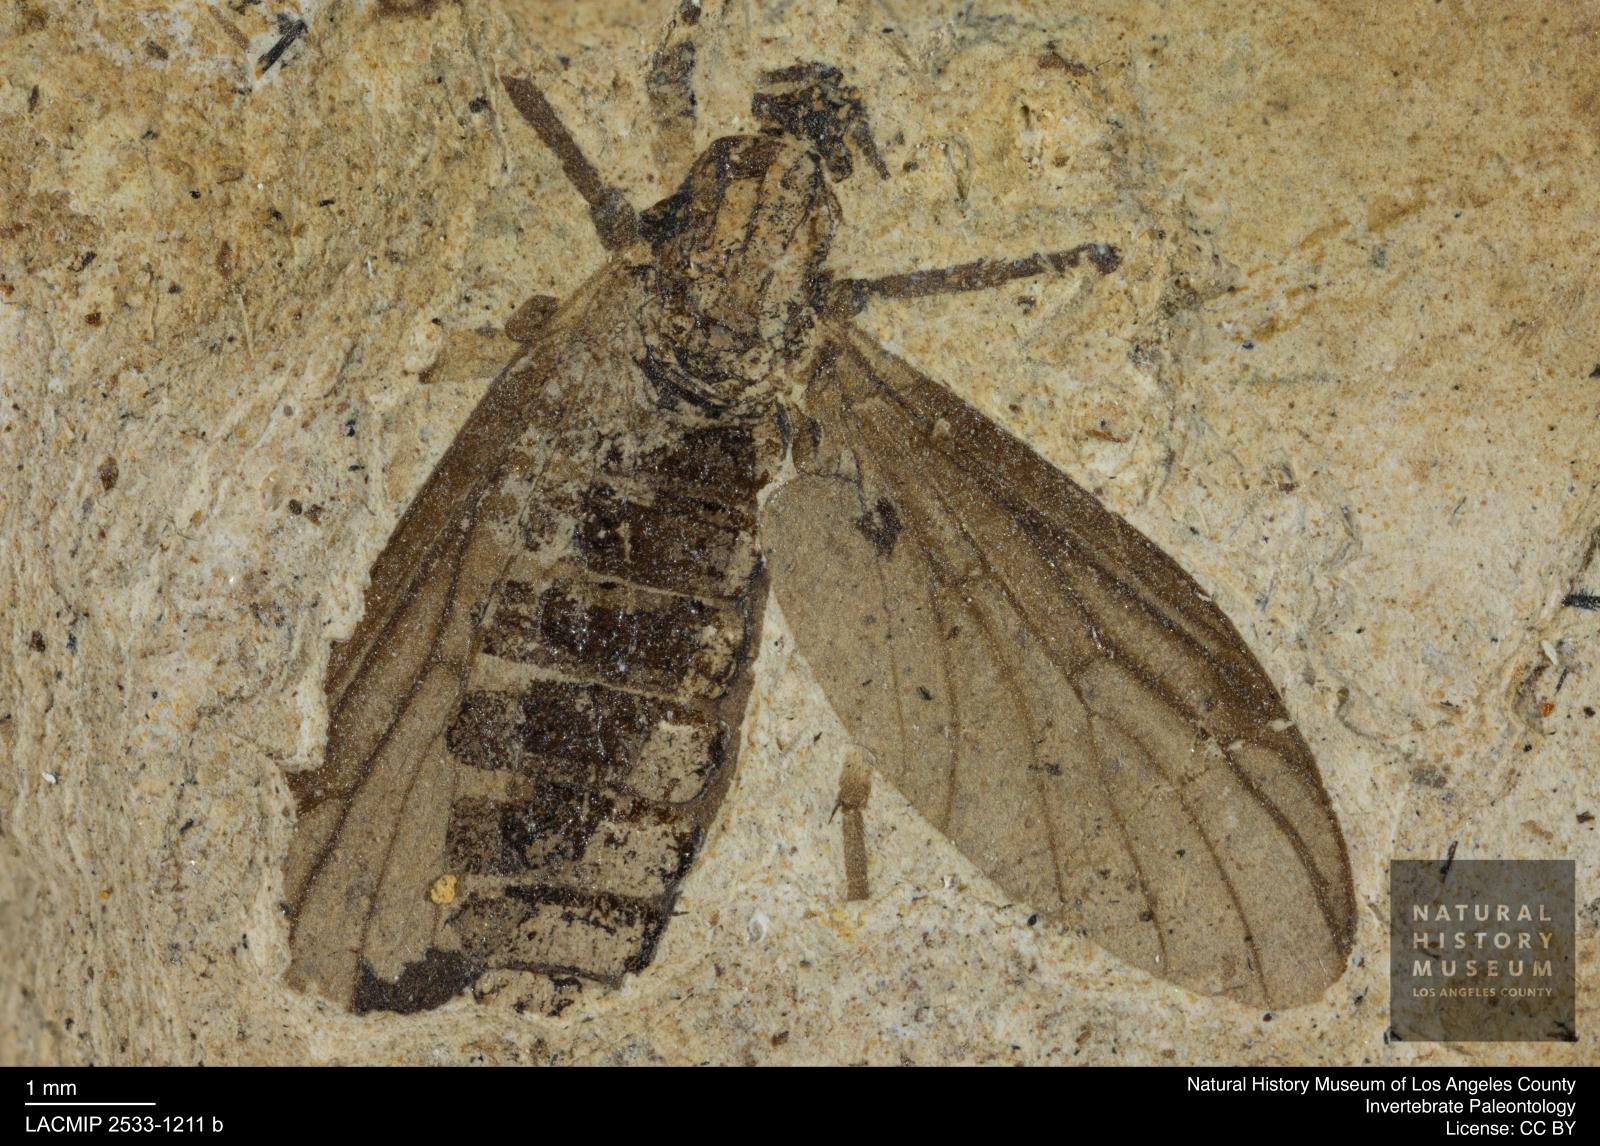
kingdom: Animalia
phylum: Arthropoda
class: Insecta
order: Diptera
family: Bibionidae
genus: Plecia
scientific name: Plecia grossa
